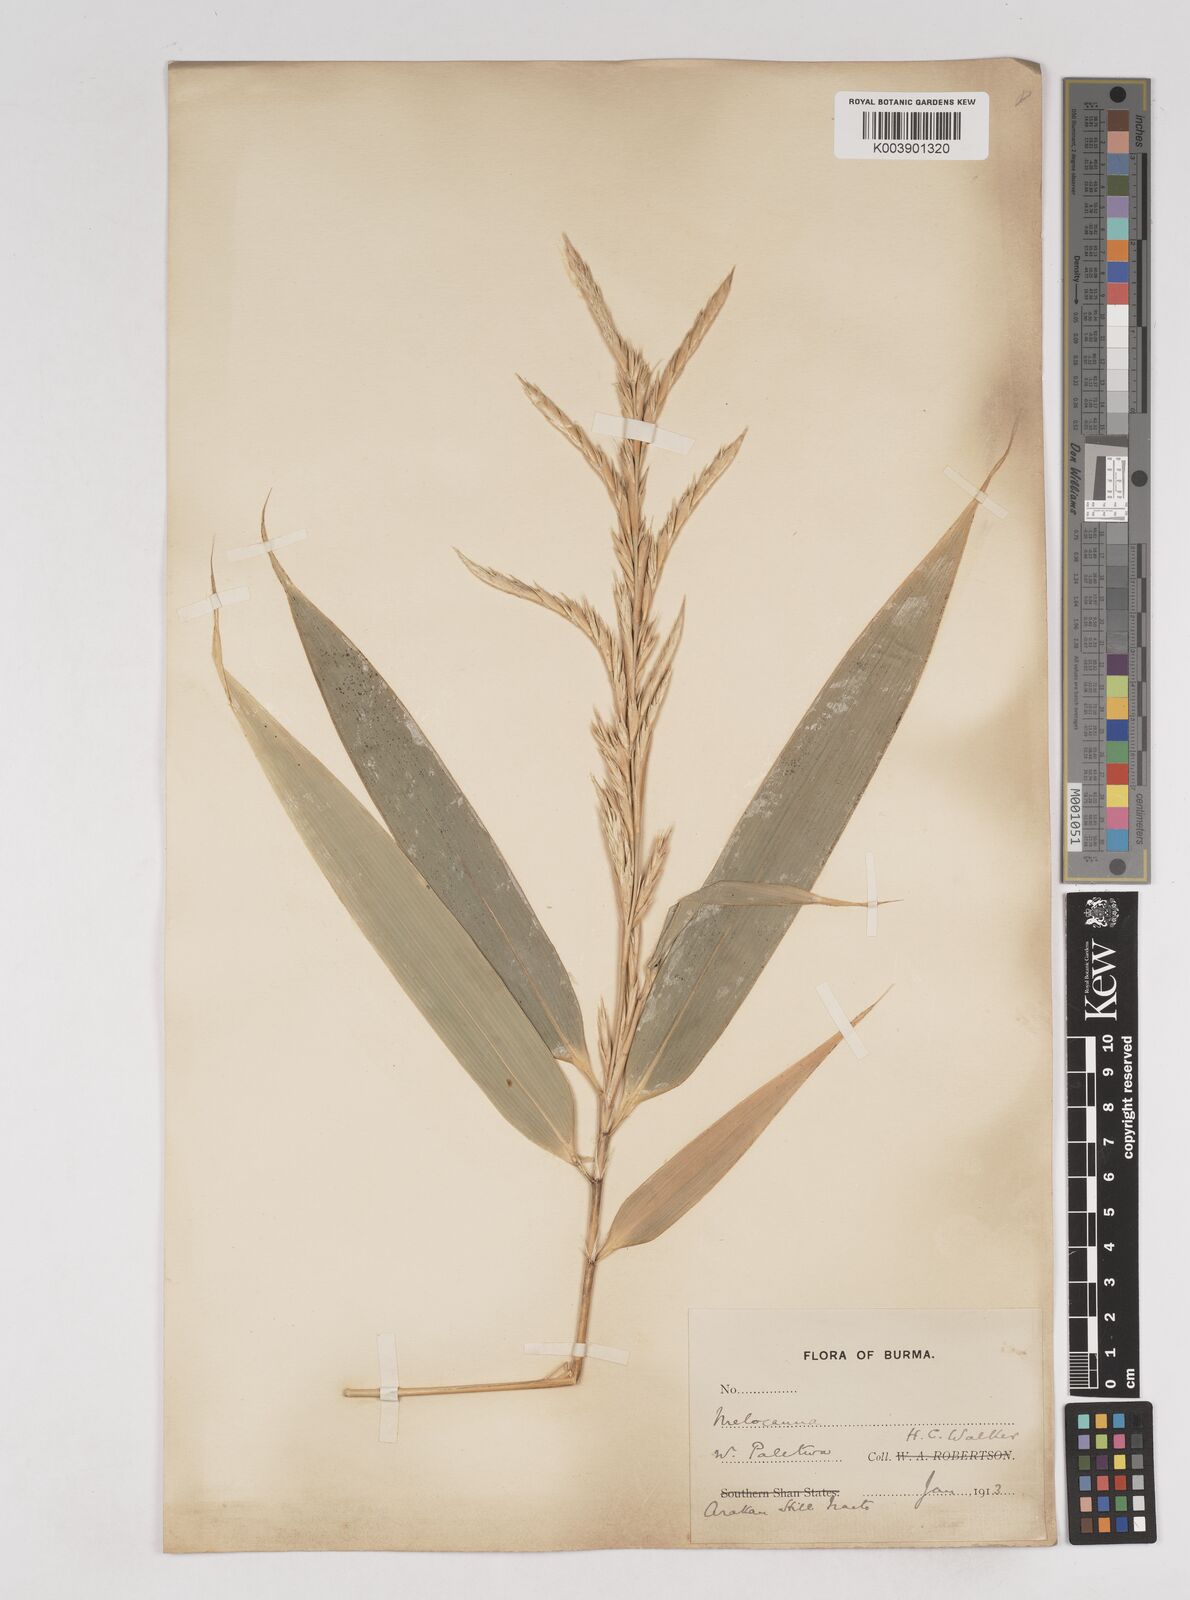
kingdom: Plantae
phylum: Tracheophyta
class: Liliopsida
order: Poales
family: Poaceae
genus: Melocanna
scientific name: Melocanna
